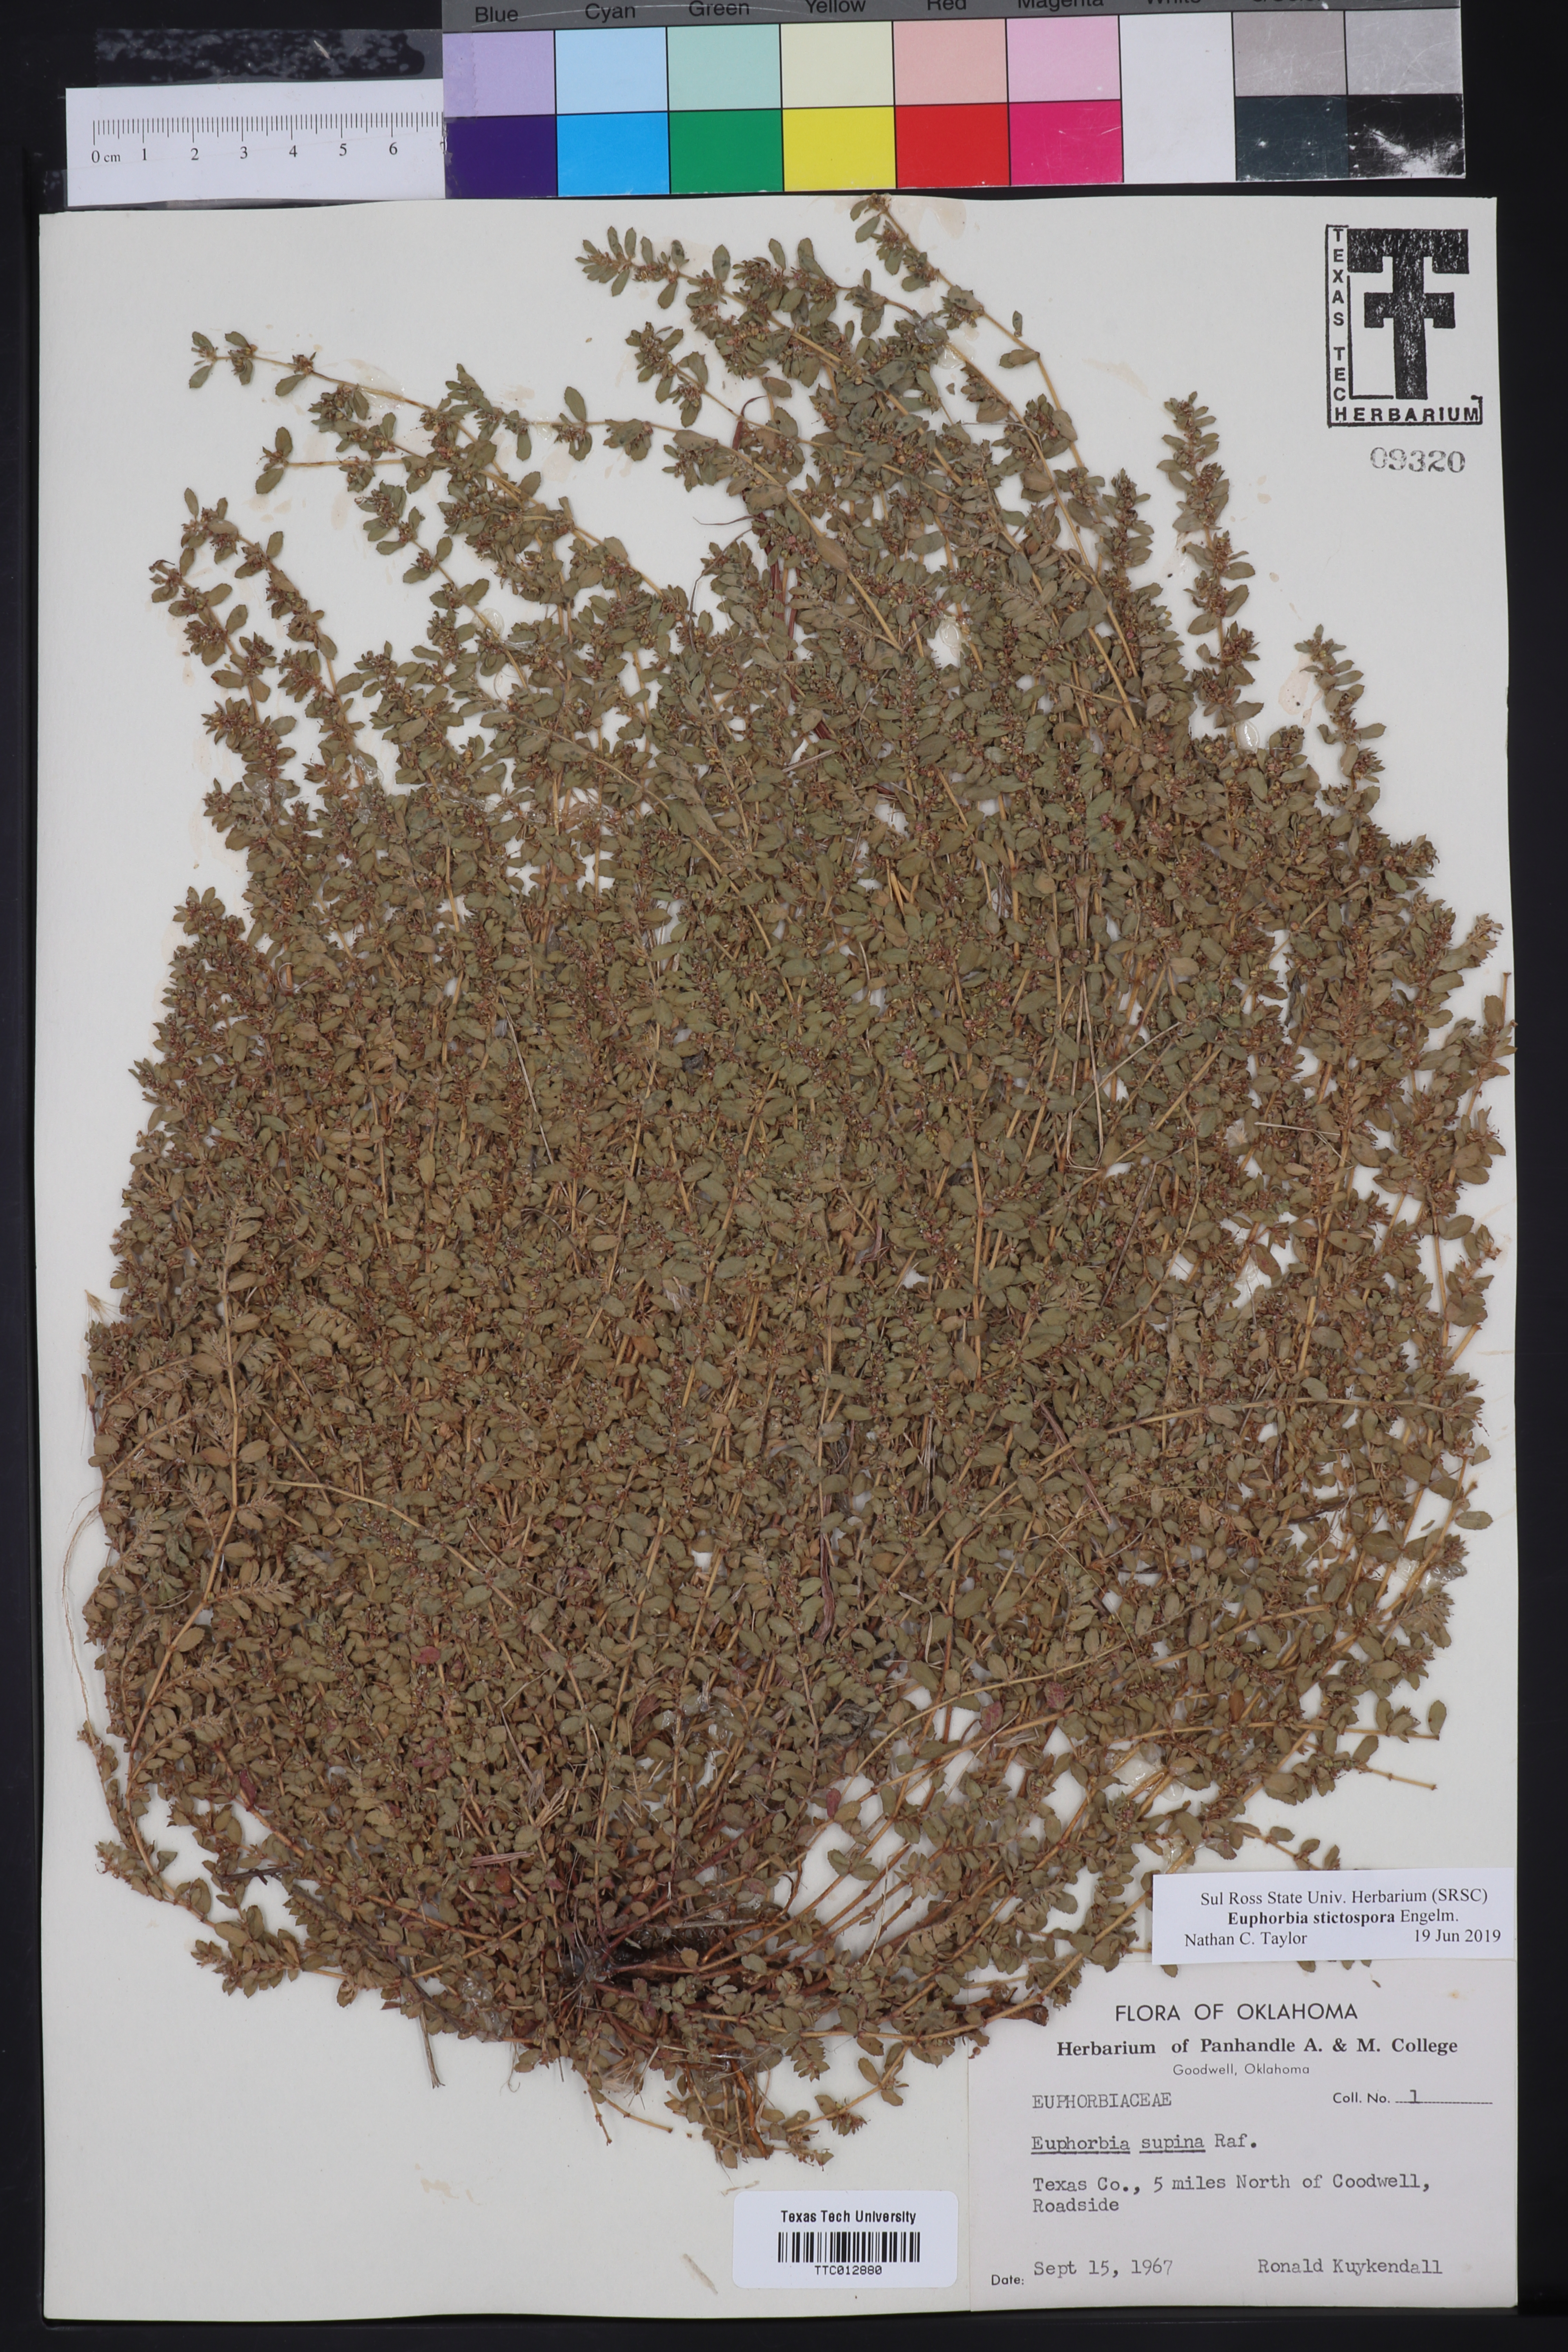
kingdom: Plantae
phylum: Tracheophyta
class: Magnoliopsida
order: Malpighiales
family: Euphorbiaceae
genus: Euphorbia
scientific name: Euphorbia stictospora
